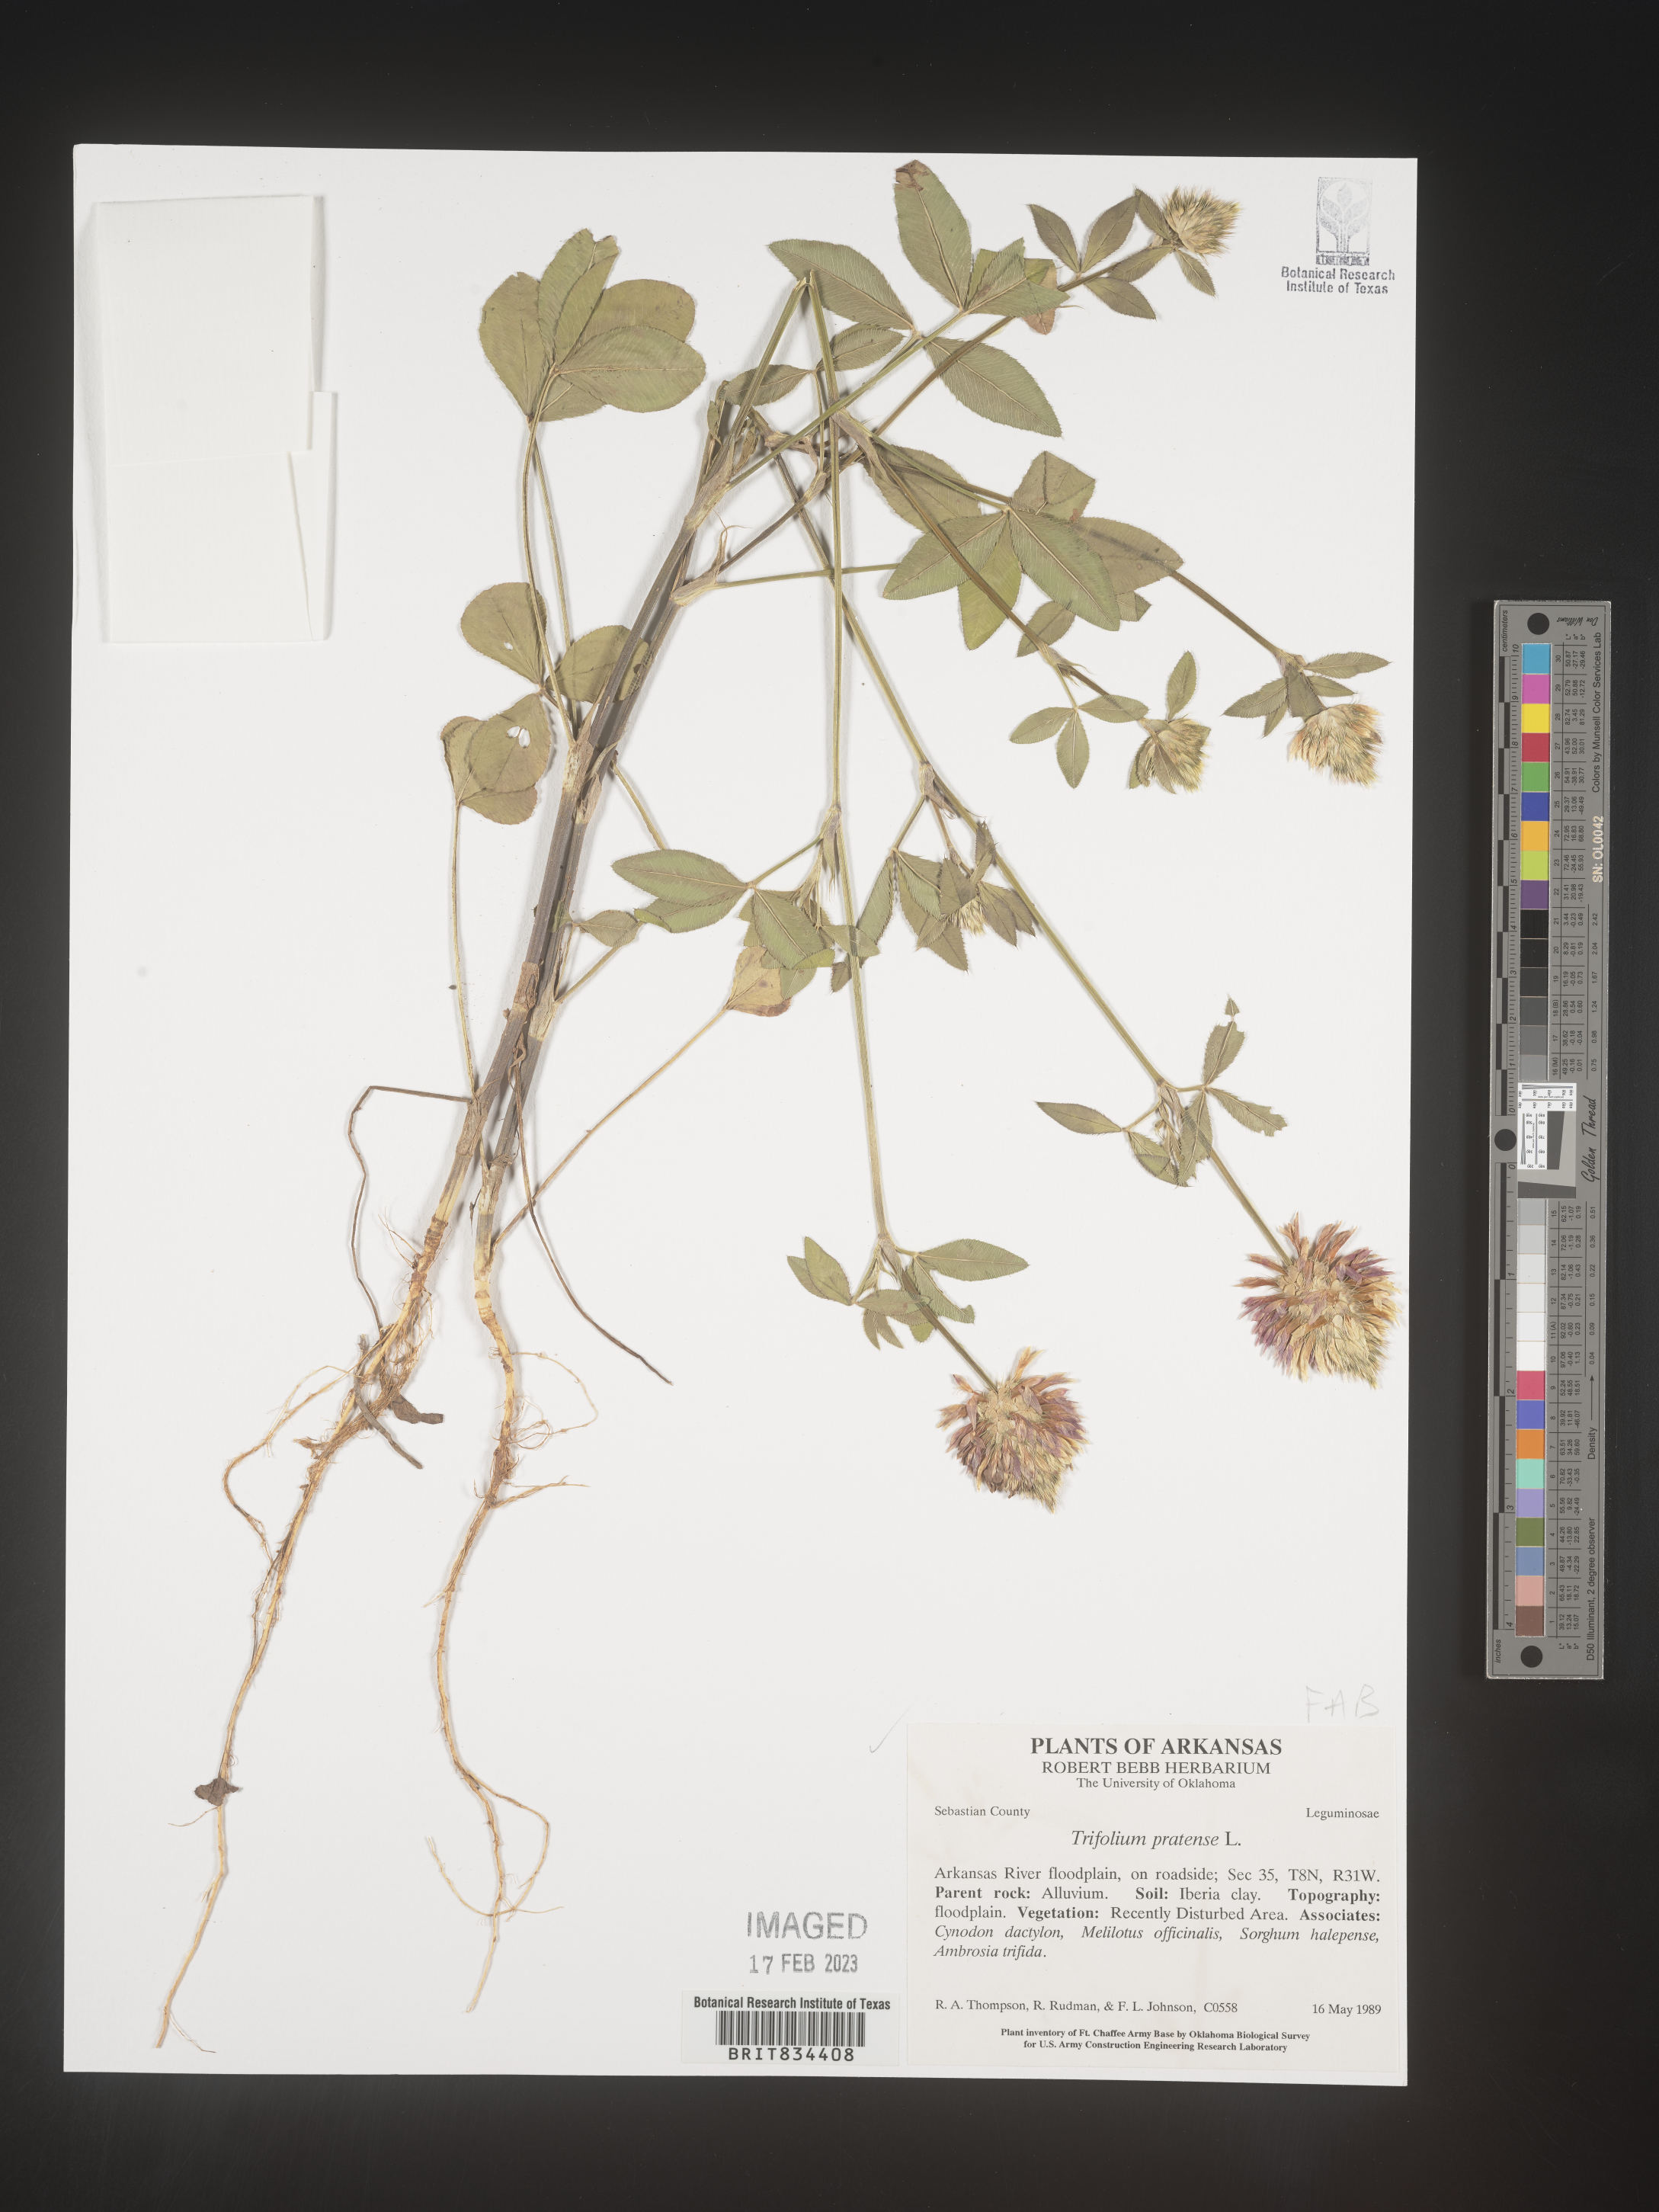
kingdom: Plantae
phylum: Tracheophyta
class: Magnoliopsida
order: Fabales
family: Fabaceae
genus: Trifolium
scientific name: Trifolium pratense
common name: Red clover
